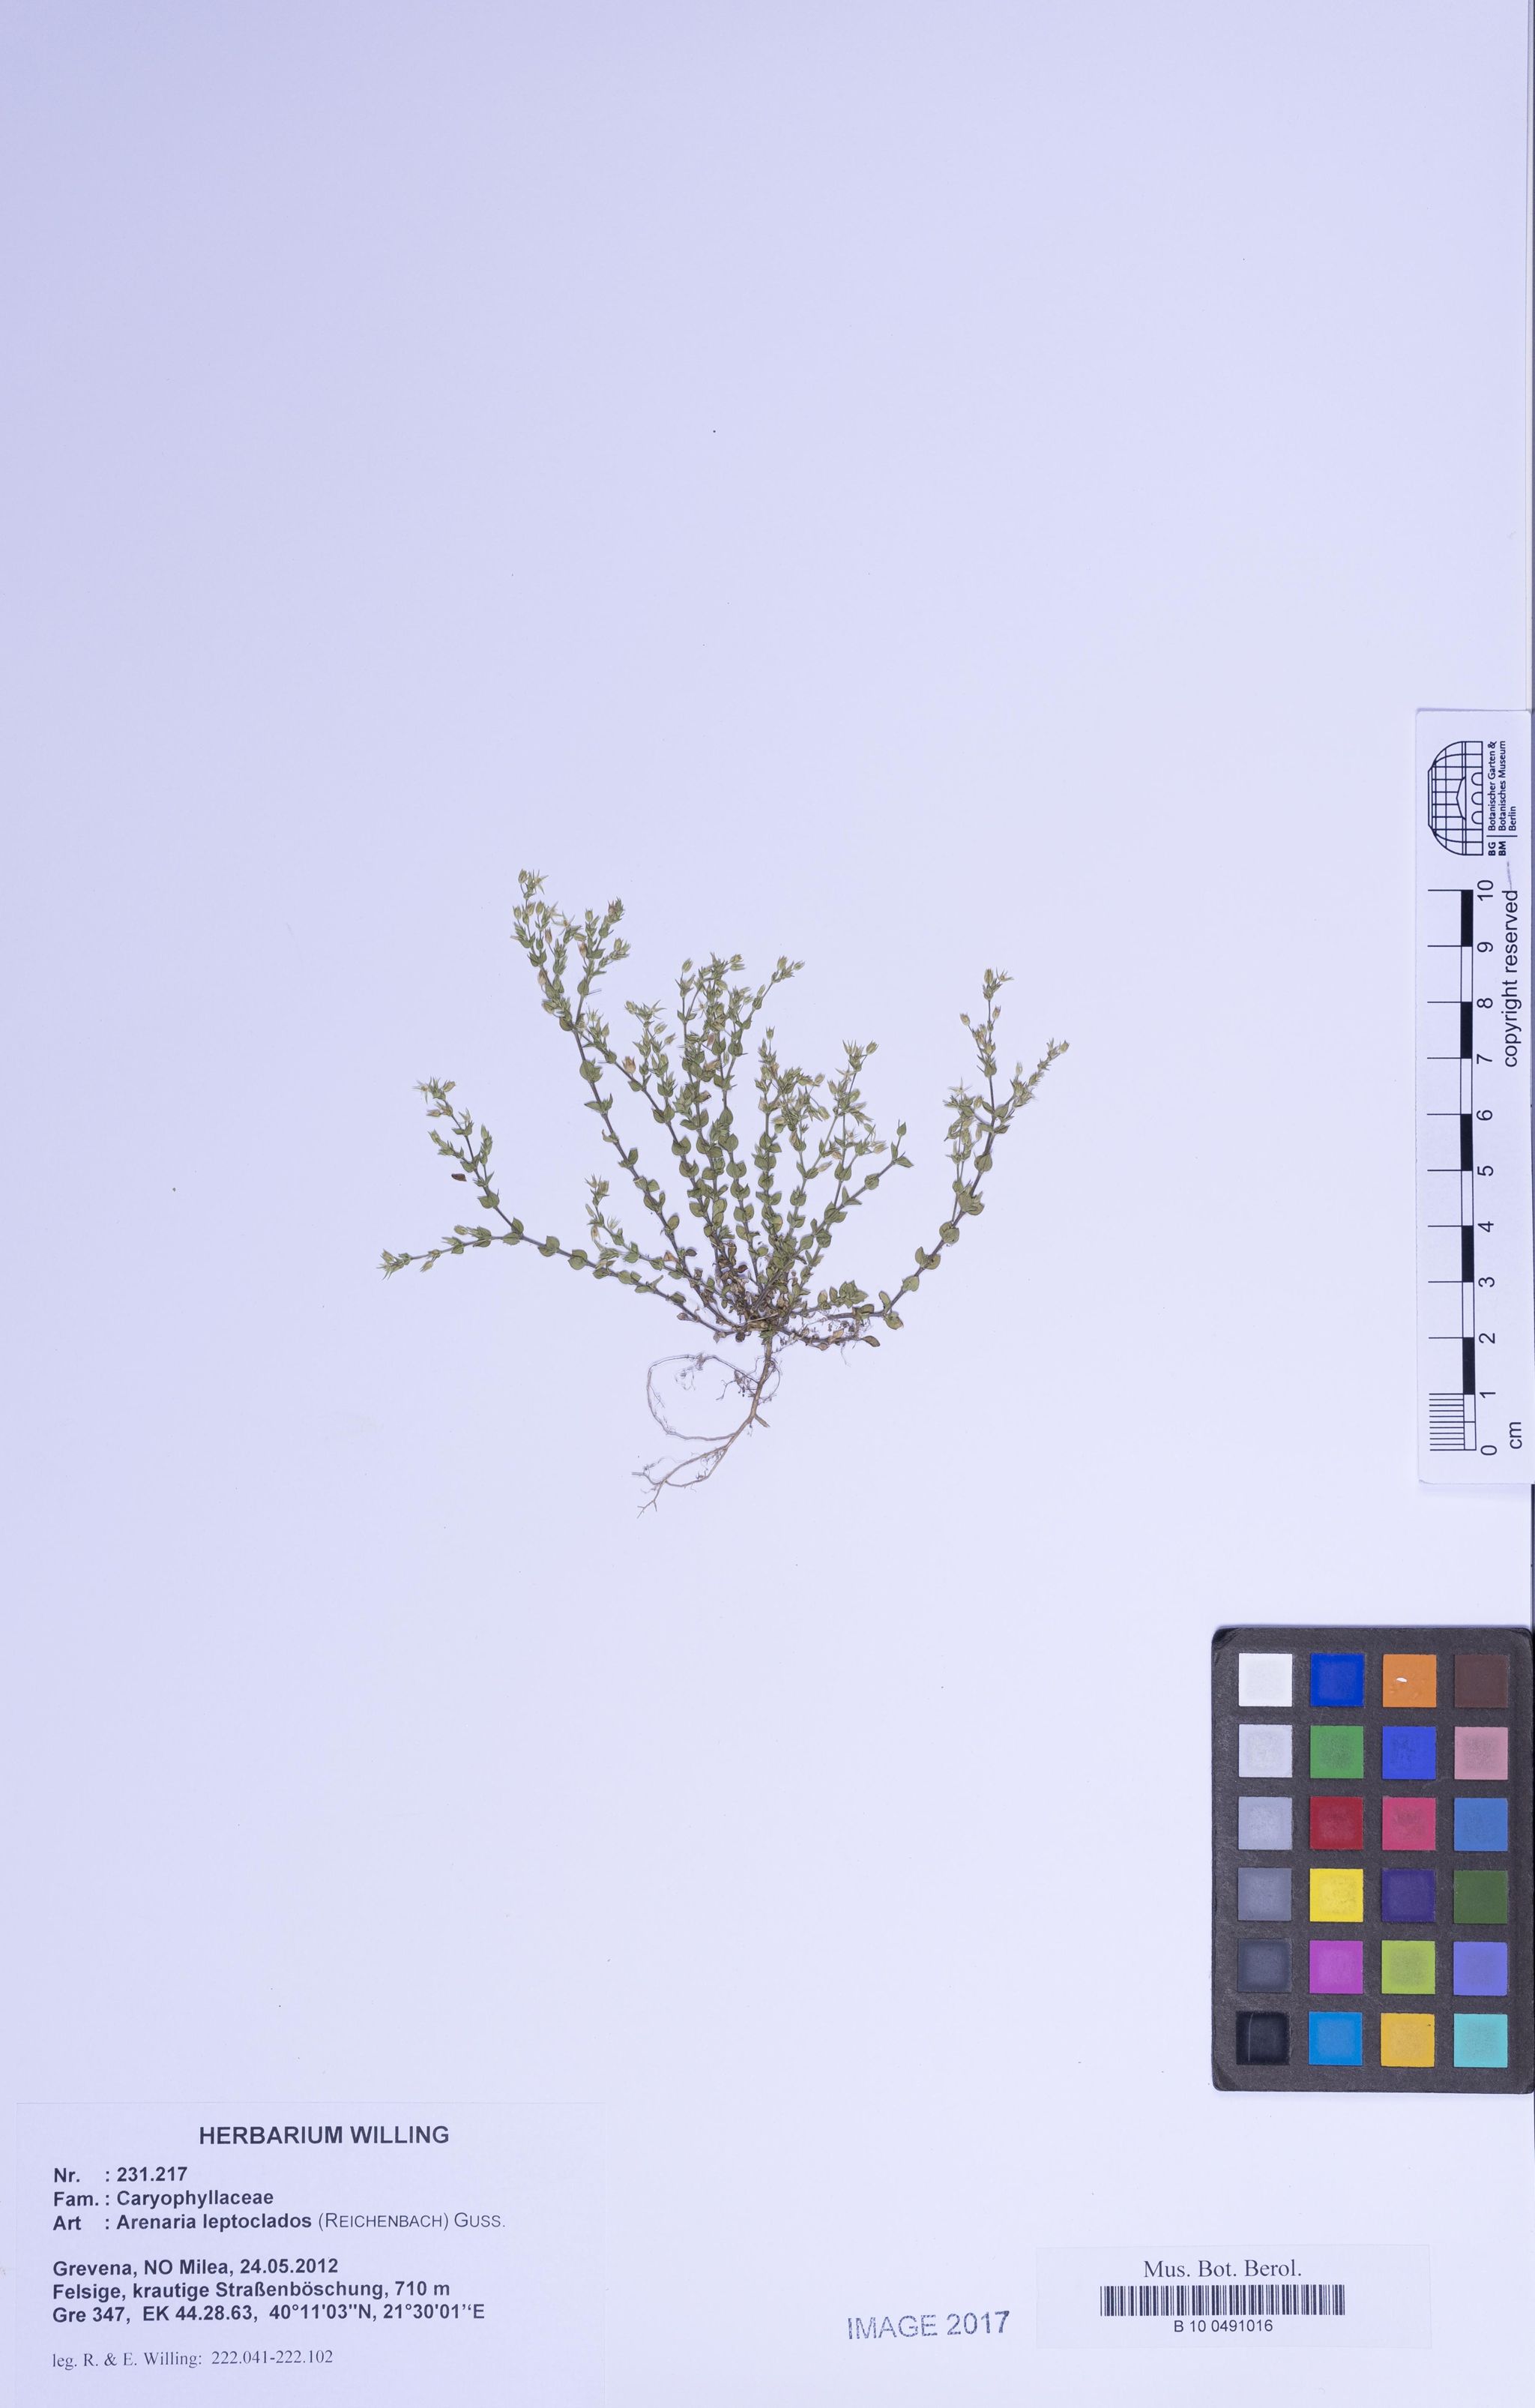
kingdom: Plantae
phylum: Tracheophyta
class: Magnoliopsida
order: Caryophyllales
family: Caryophyllaceae
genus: Arenaria
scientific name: Arenaria leptoclados
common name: Thyme-leaved sandwort
